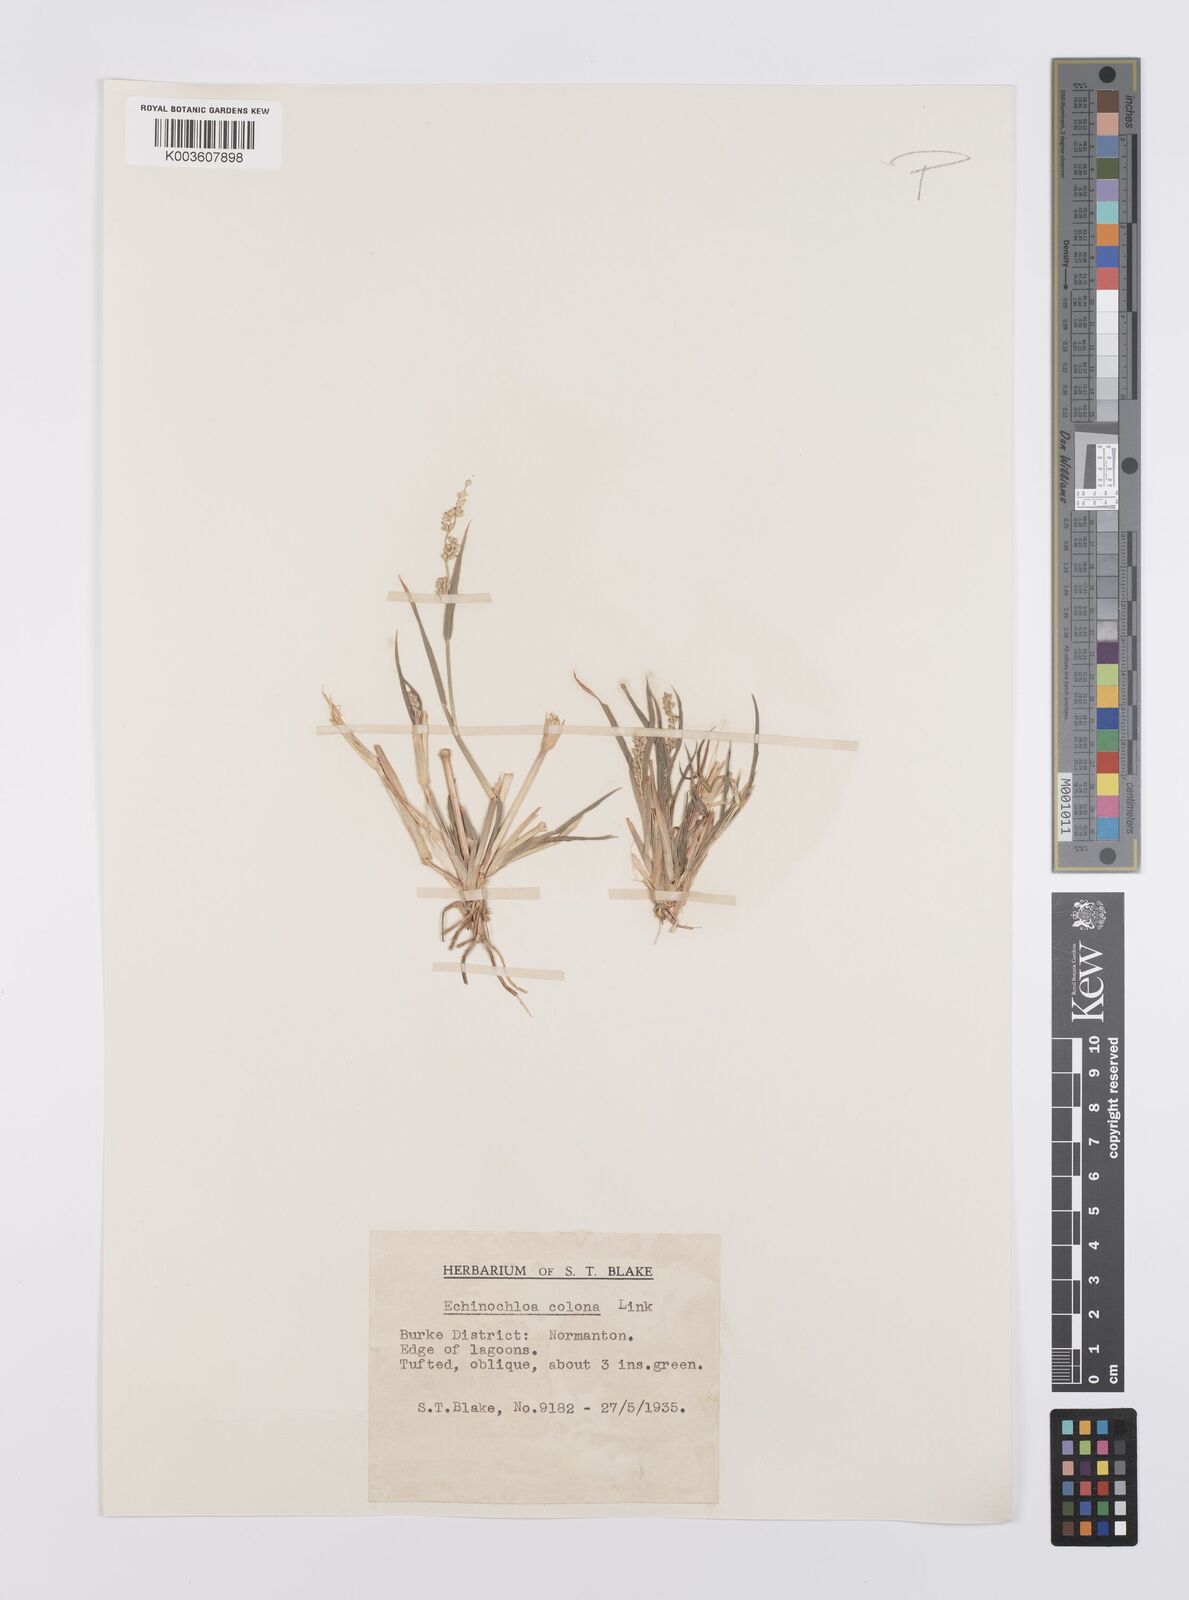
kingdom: Plantae
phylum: Tracheophyta
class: Liliopsida
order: Poales
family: Poaceae
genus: Echinochloa
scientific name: Echinochloa colonum
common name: Jungle rice
